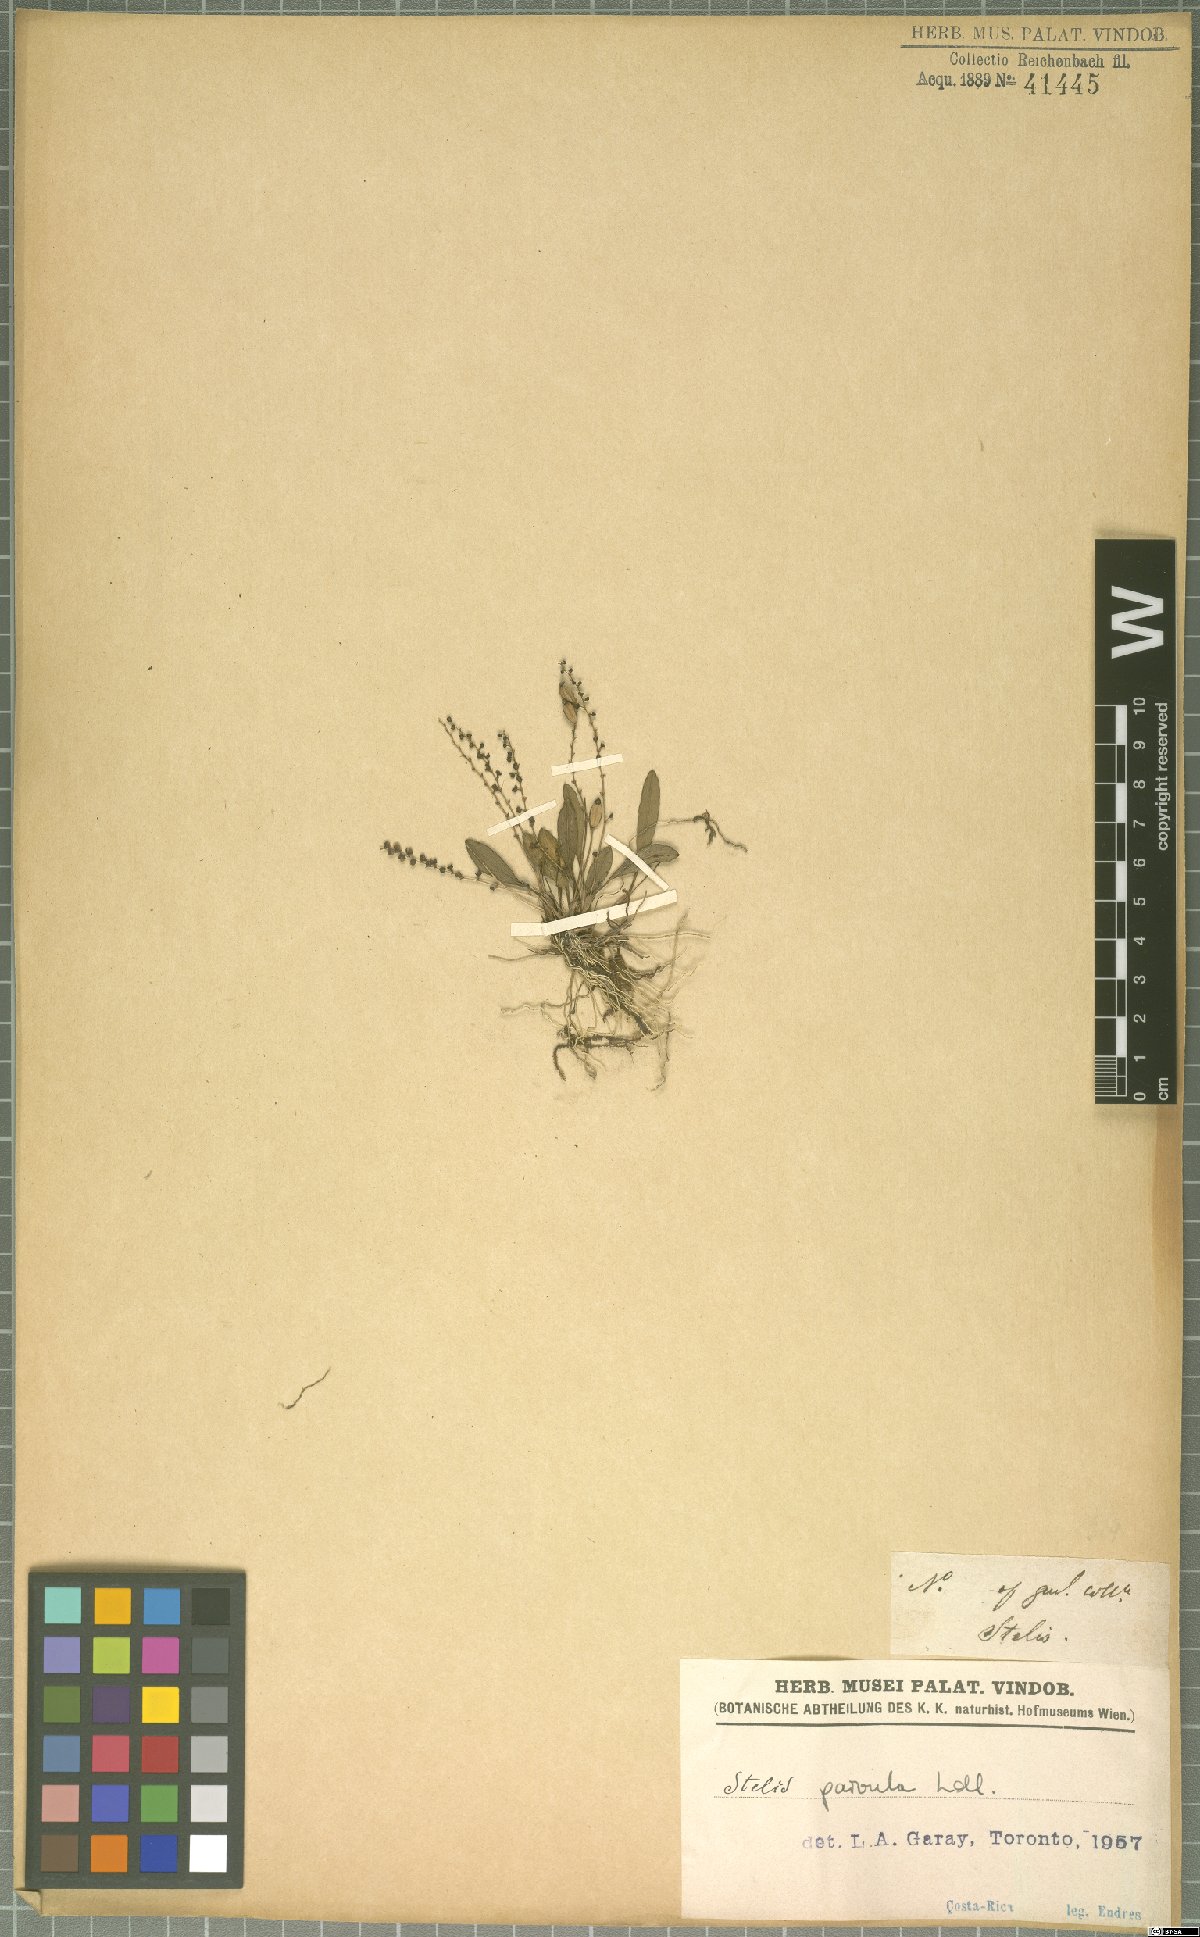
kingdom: Plantae
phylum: Tracheophyta
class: Liliopsida
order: Asparagales
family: Orchidaceae
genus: Stelis
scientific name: Stelis parvula
